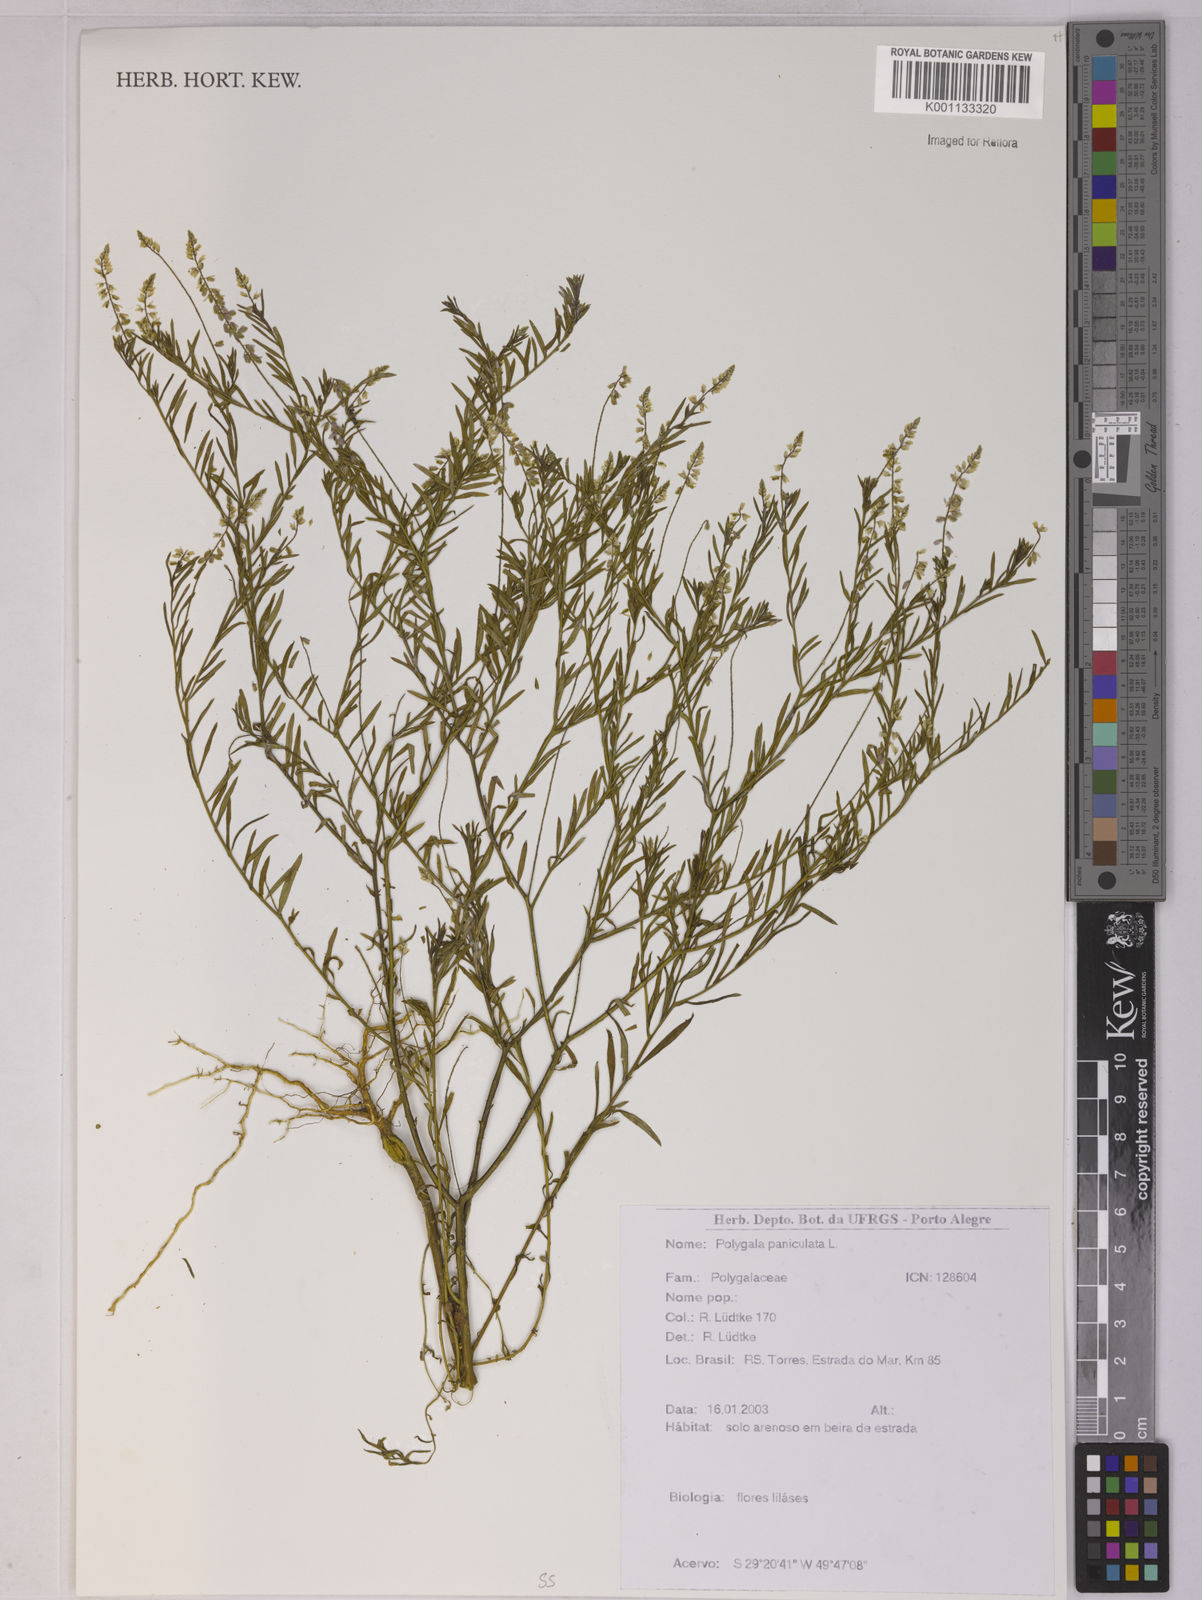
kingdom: Plantae
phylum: Tracheophyta
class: Magnoliopsida
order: Fabales
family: Polygalaceae
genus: Polygala
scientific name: Polygala paniculata
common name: Orosne
